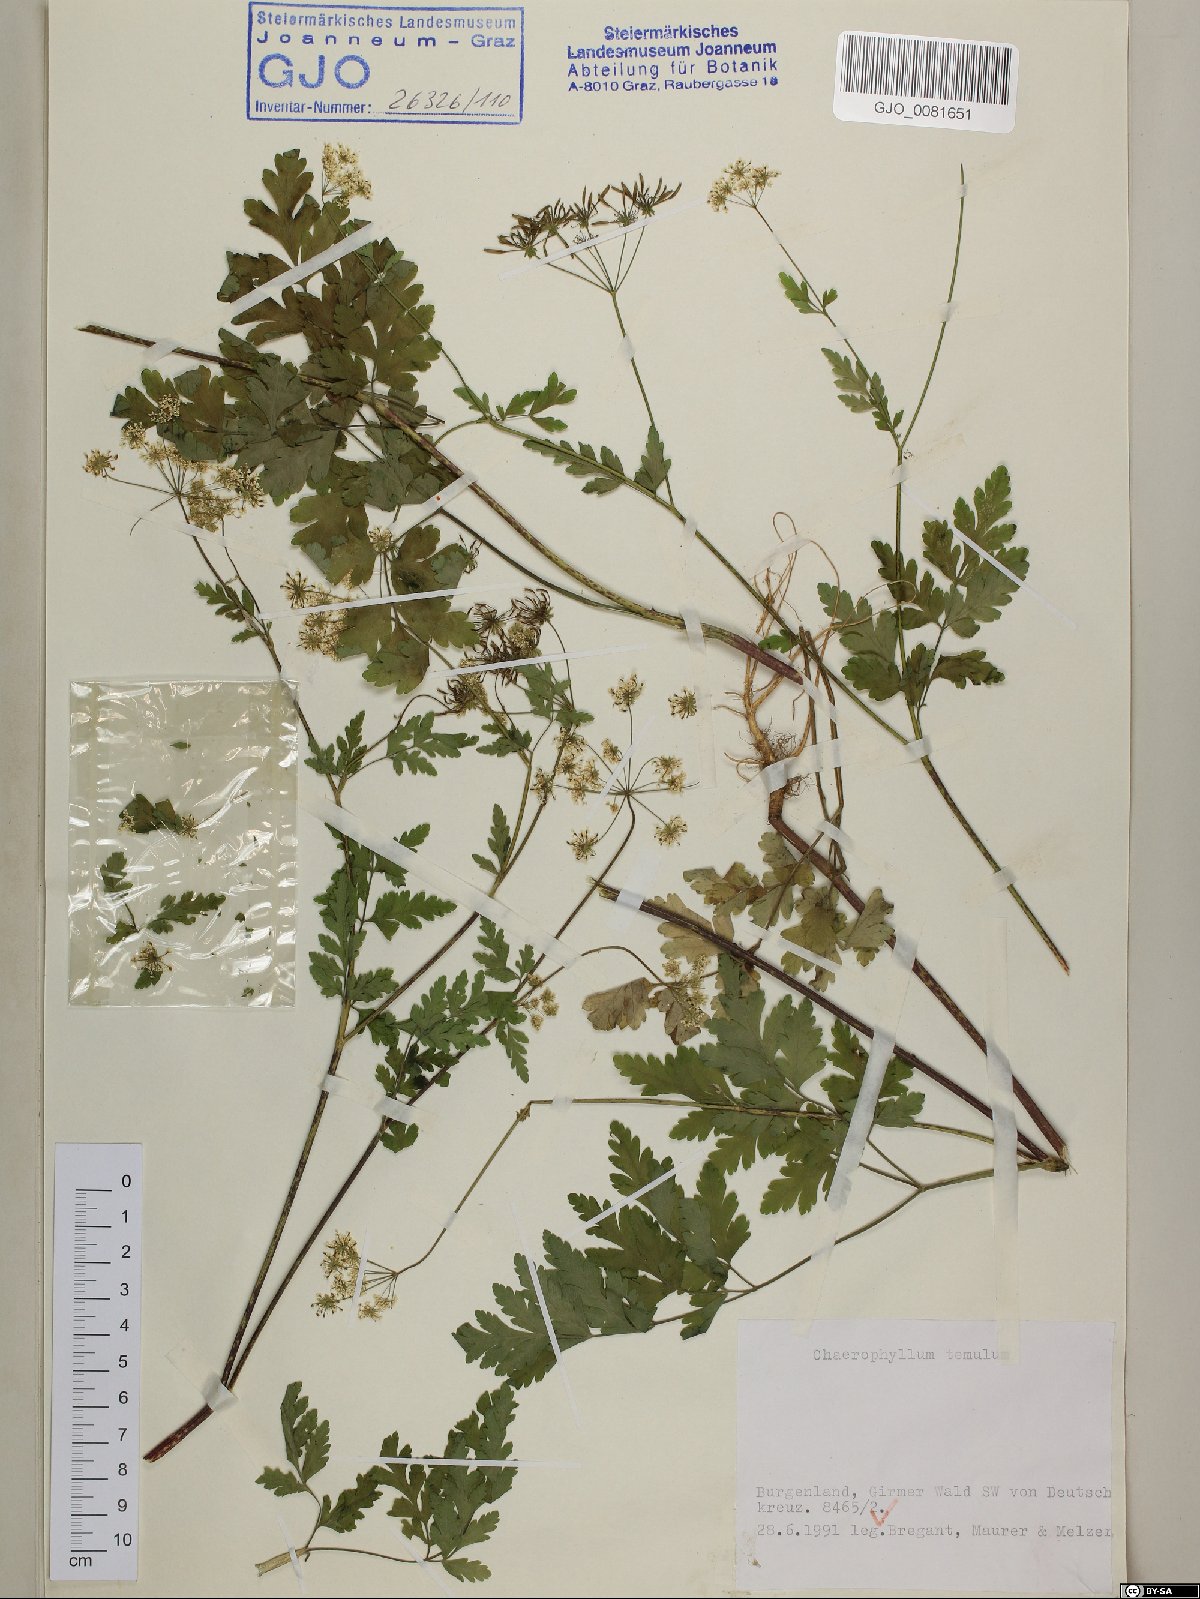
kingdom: Plantae
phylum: Tracheophyta
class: Magnoliopsida
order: Apiales
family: Apiaceae
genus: Chaerophyllum
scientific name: Chaerophyllum temulum
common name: Rough chervil
